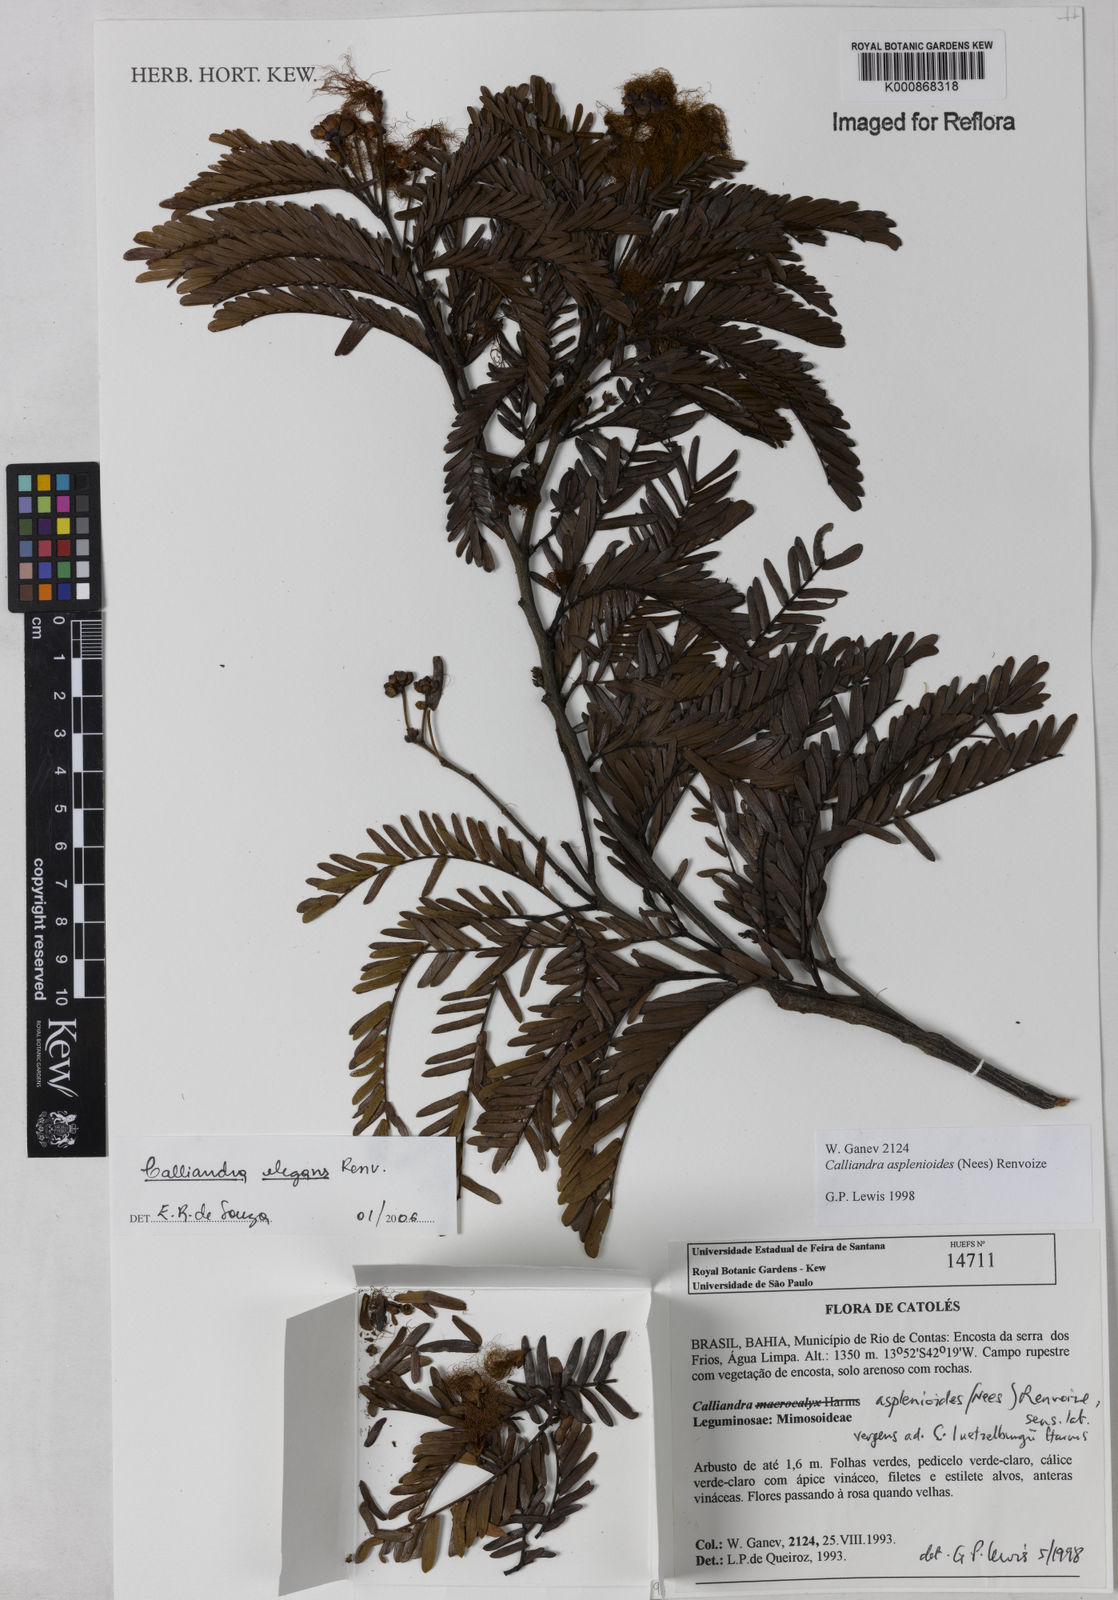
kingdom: Plantae
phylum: Tracheophyta
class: Magnoliopsida
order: Fabales
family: Fabaceae
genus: Calliandra
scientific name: Calliandra elegans
